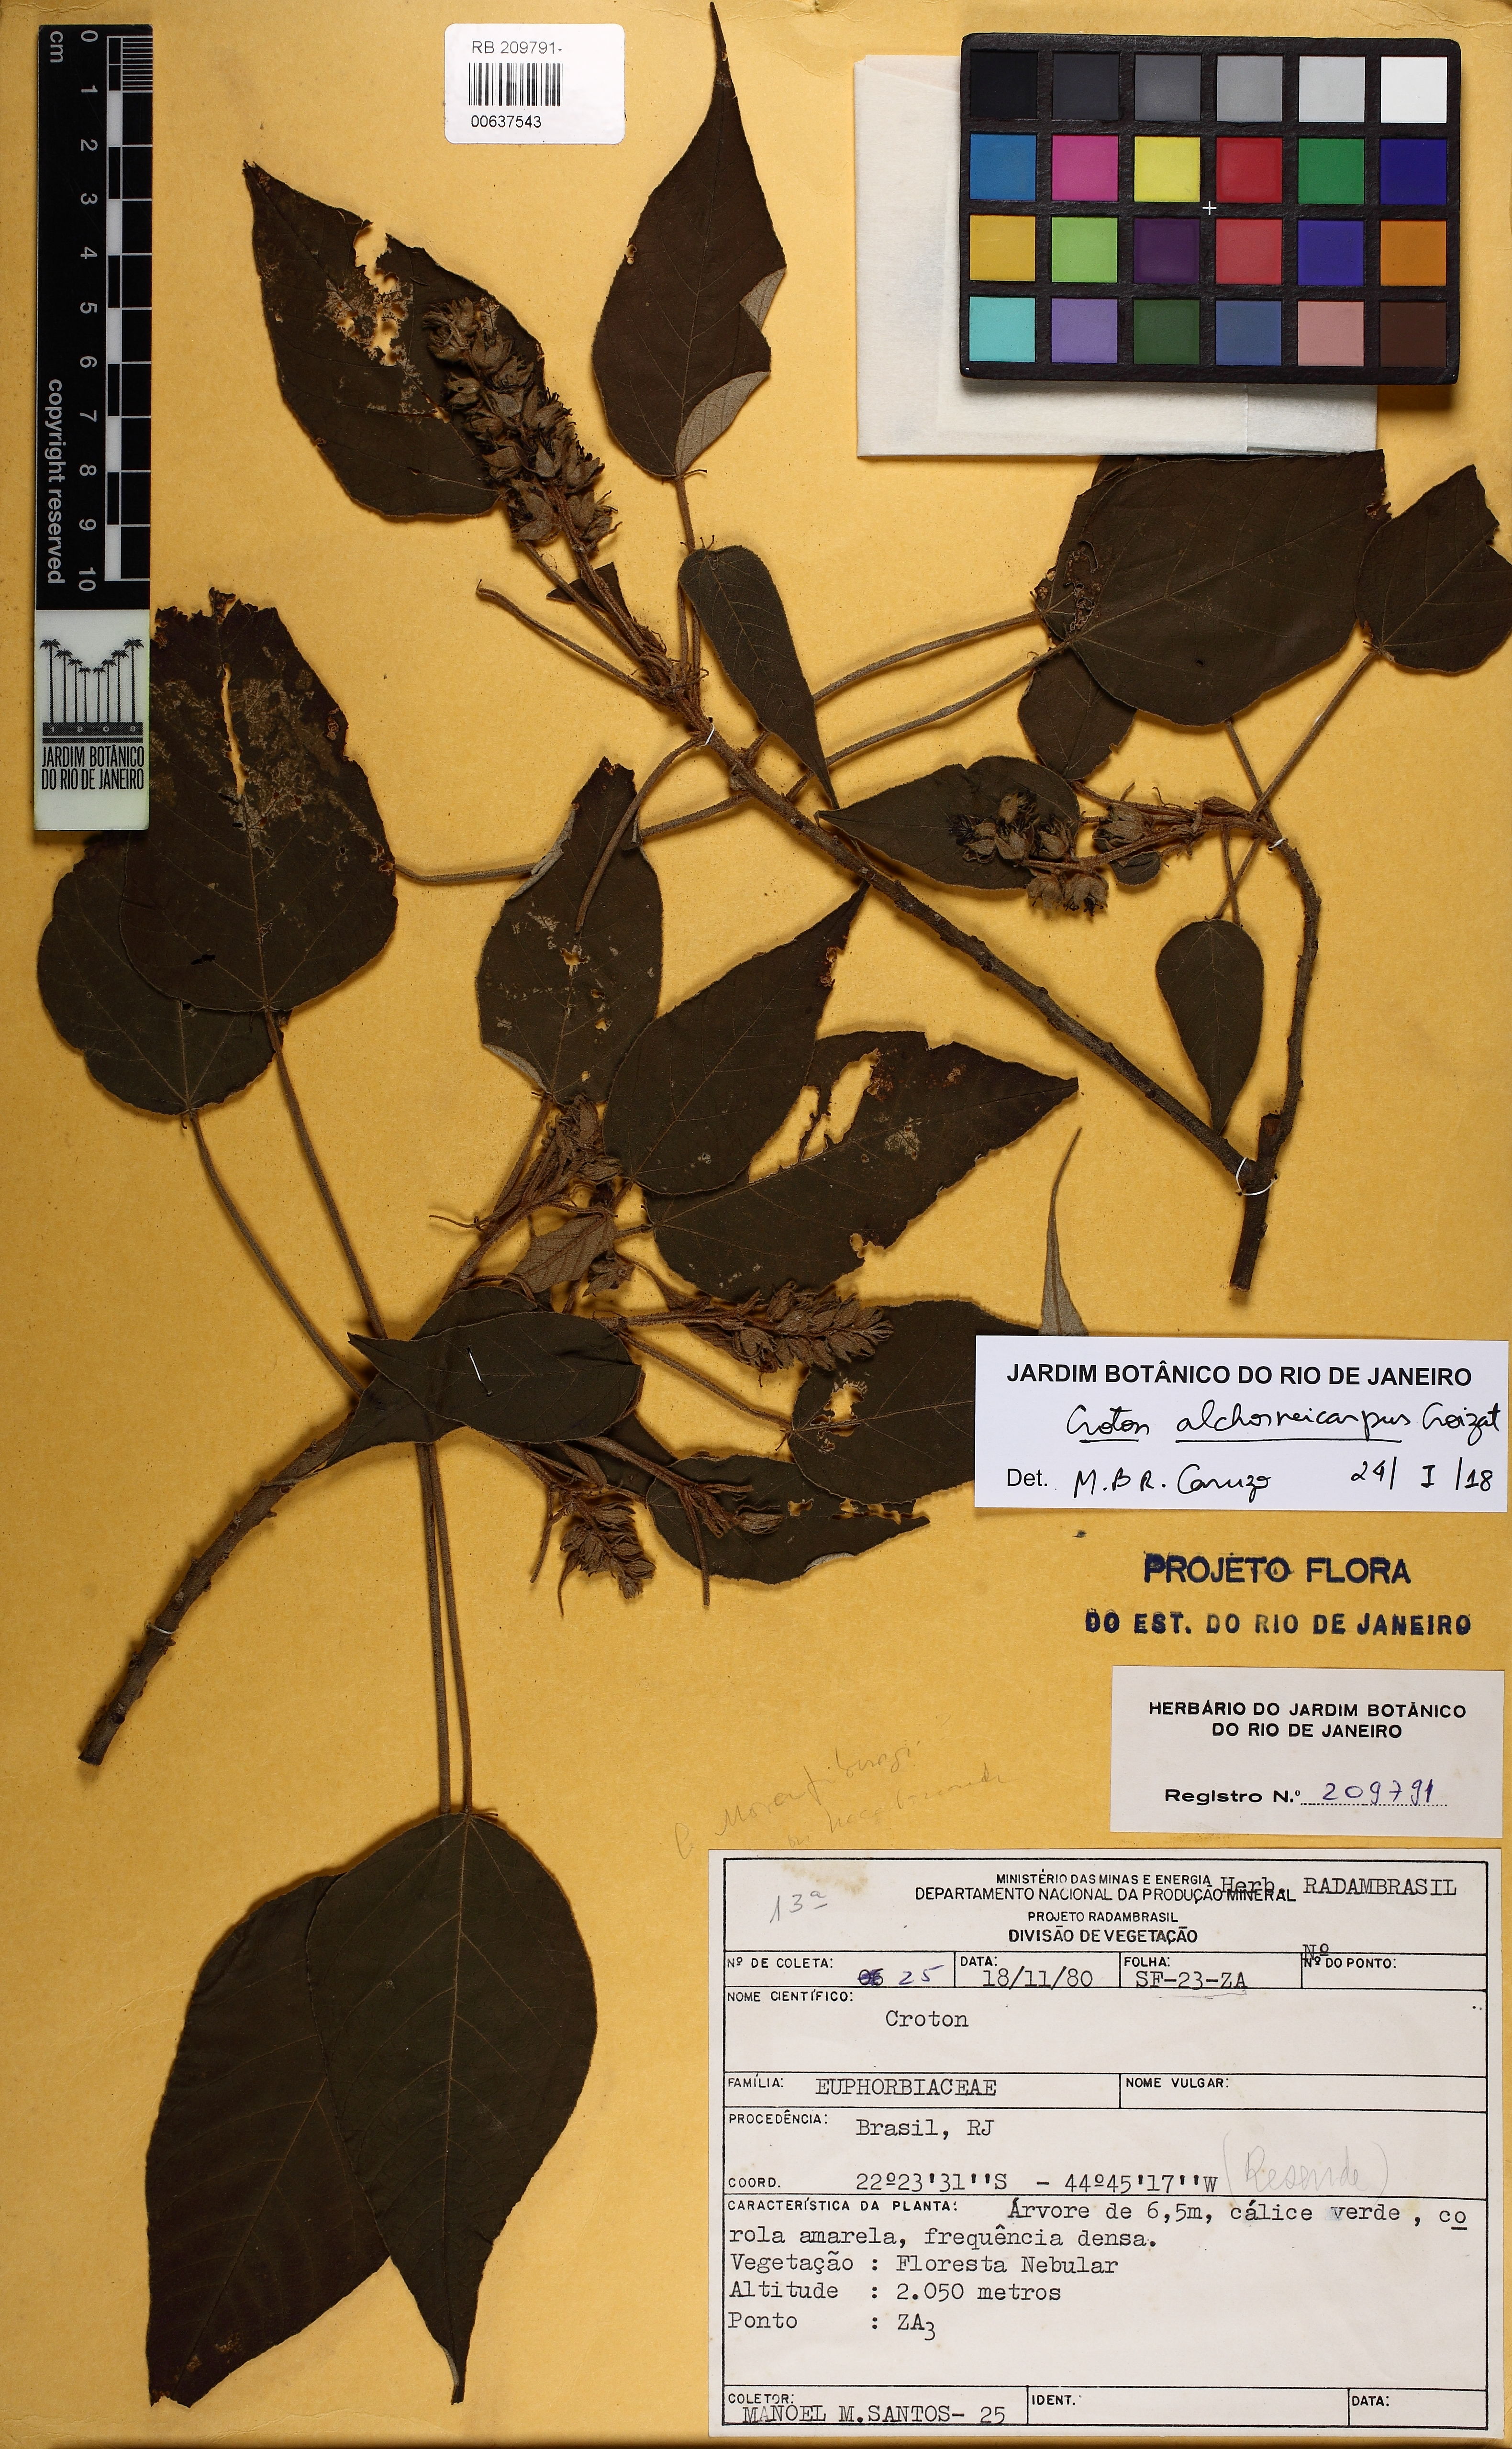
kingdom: Plantae
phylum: Tracheophyta
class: Magnoliopsida
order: Malpighiales
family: Euphorbiaceae
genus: Croton
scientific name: Croton alchorneicarpus
